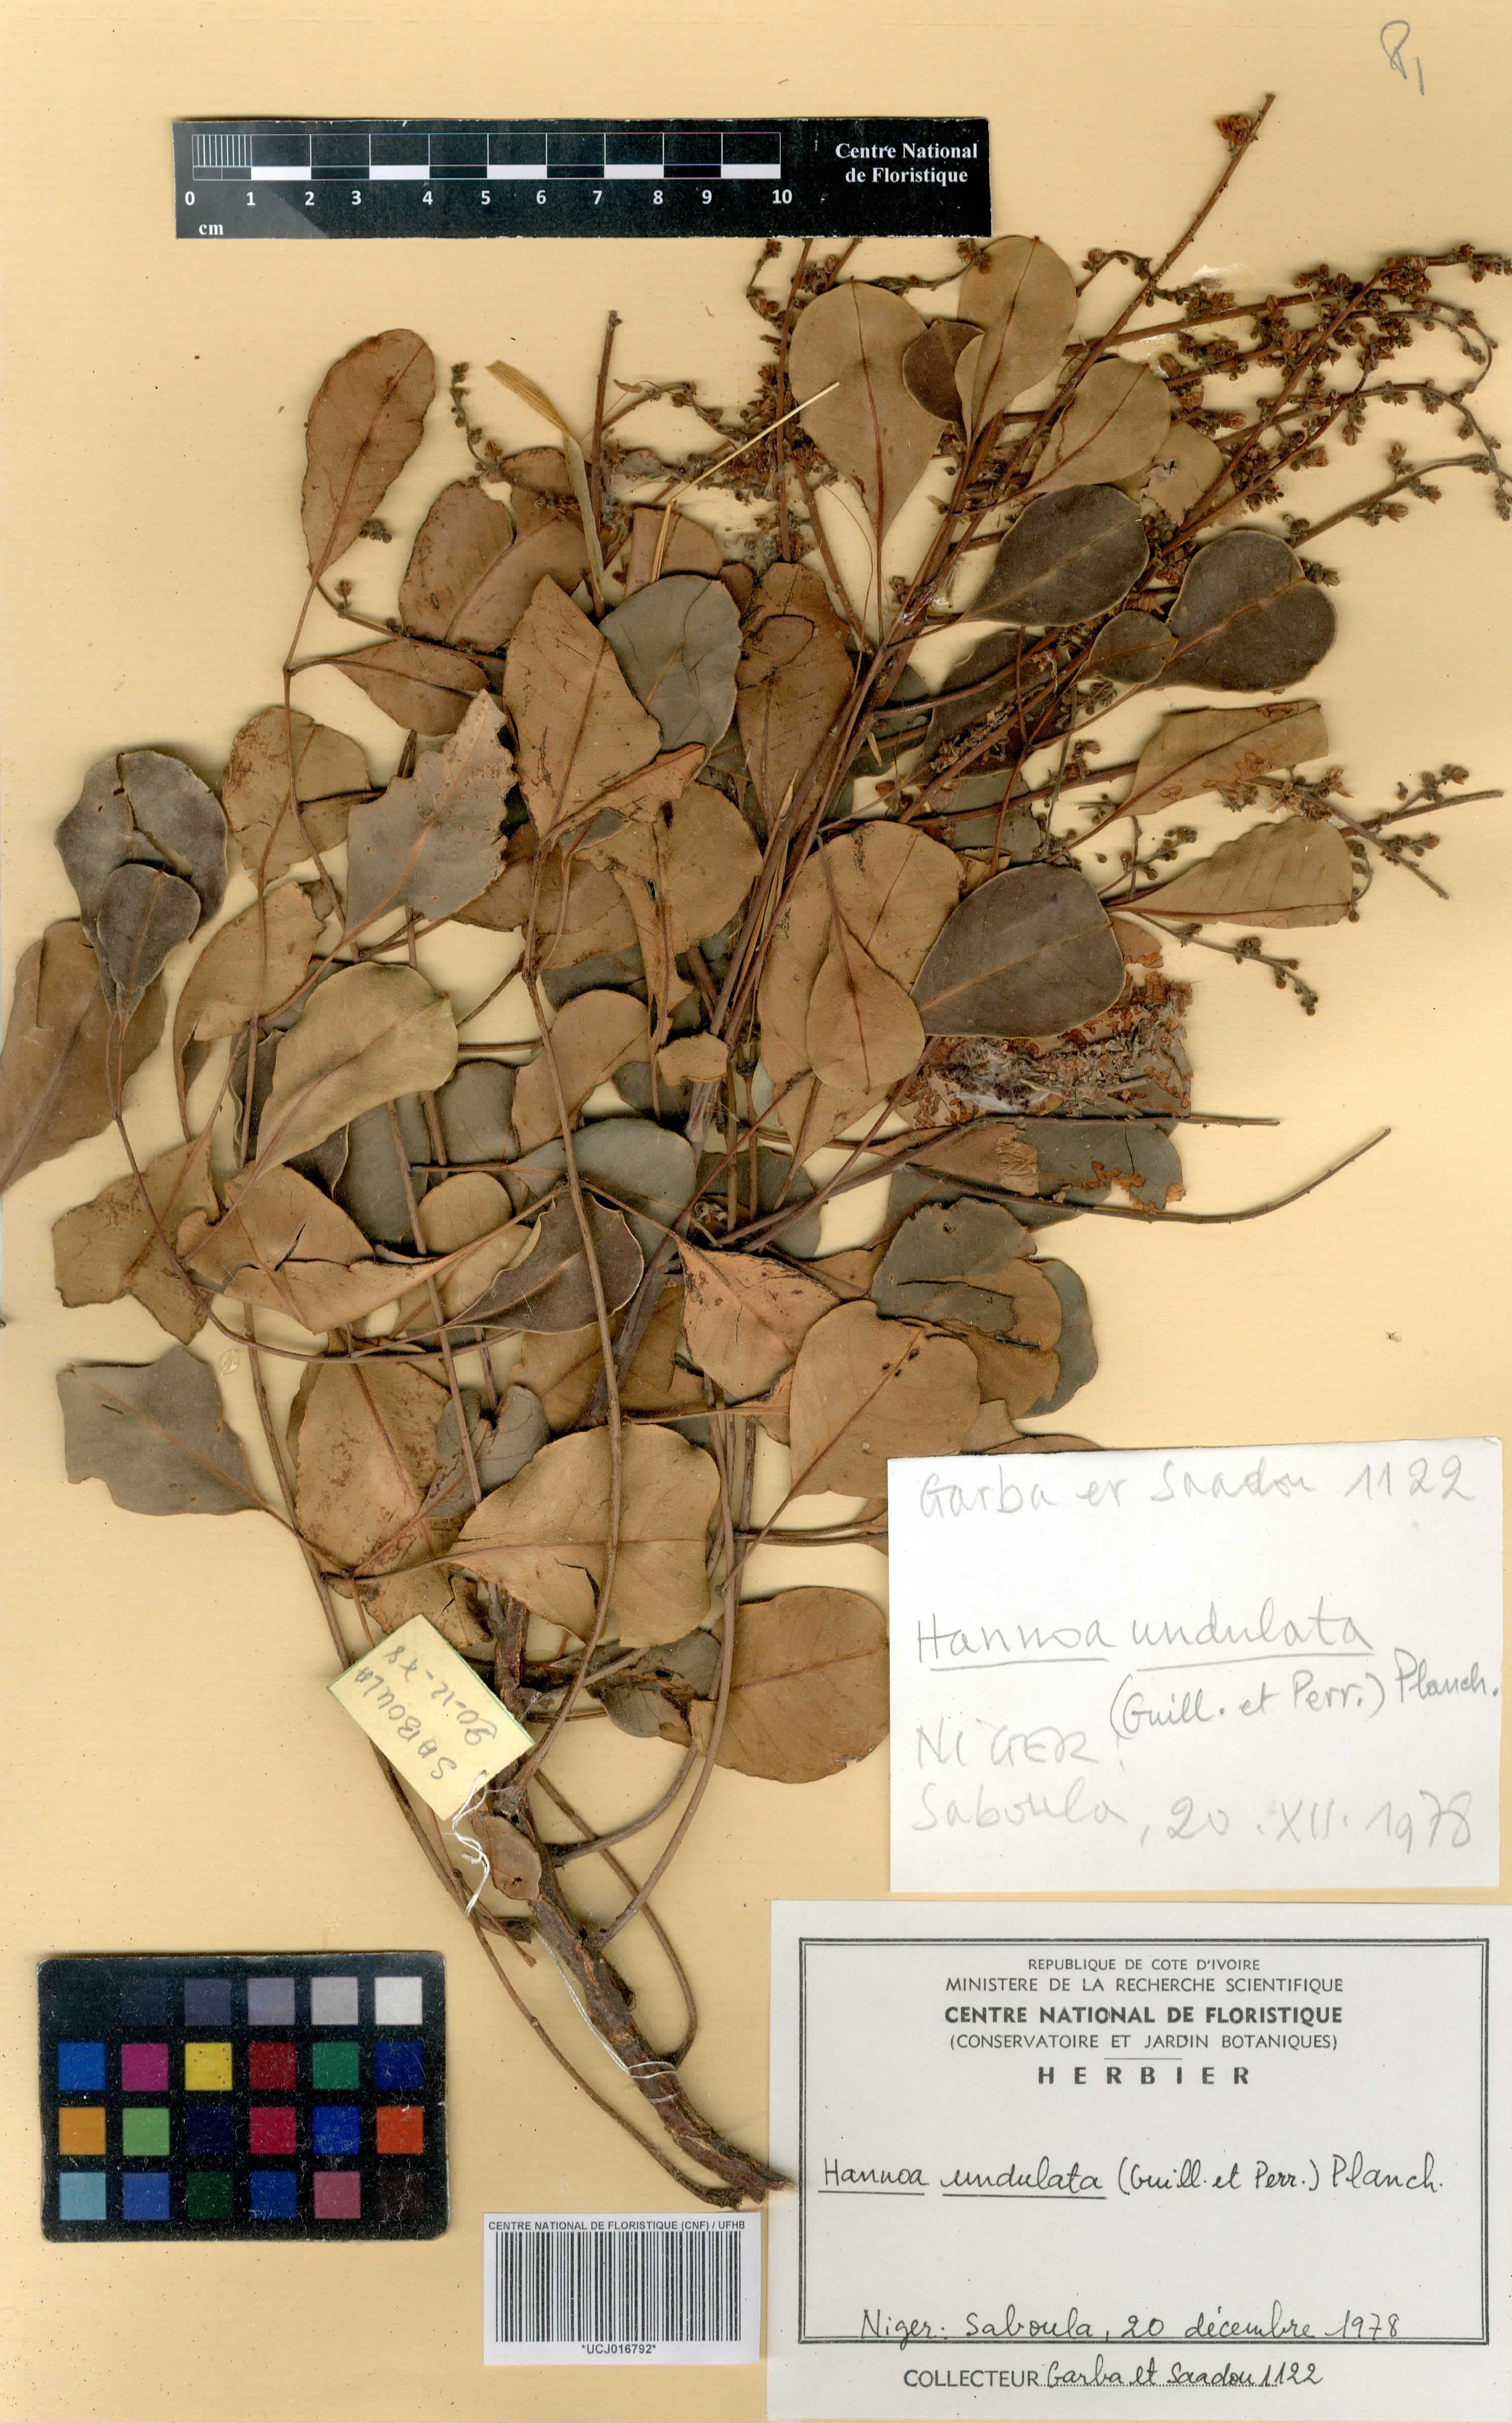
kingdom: Plantae
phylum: Tracheophyta
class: Magnoliopsida
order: Sapindales
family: Simaroubaceae
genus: Odyendyea
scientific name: Odyendyea klaineana
